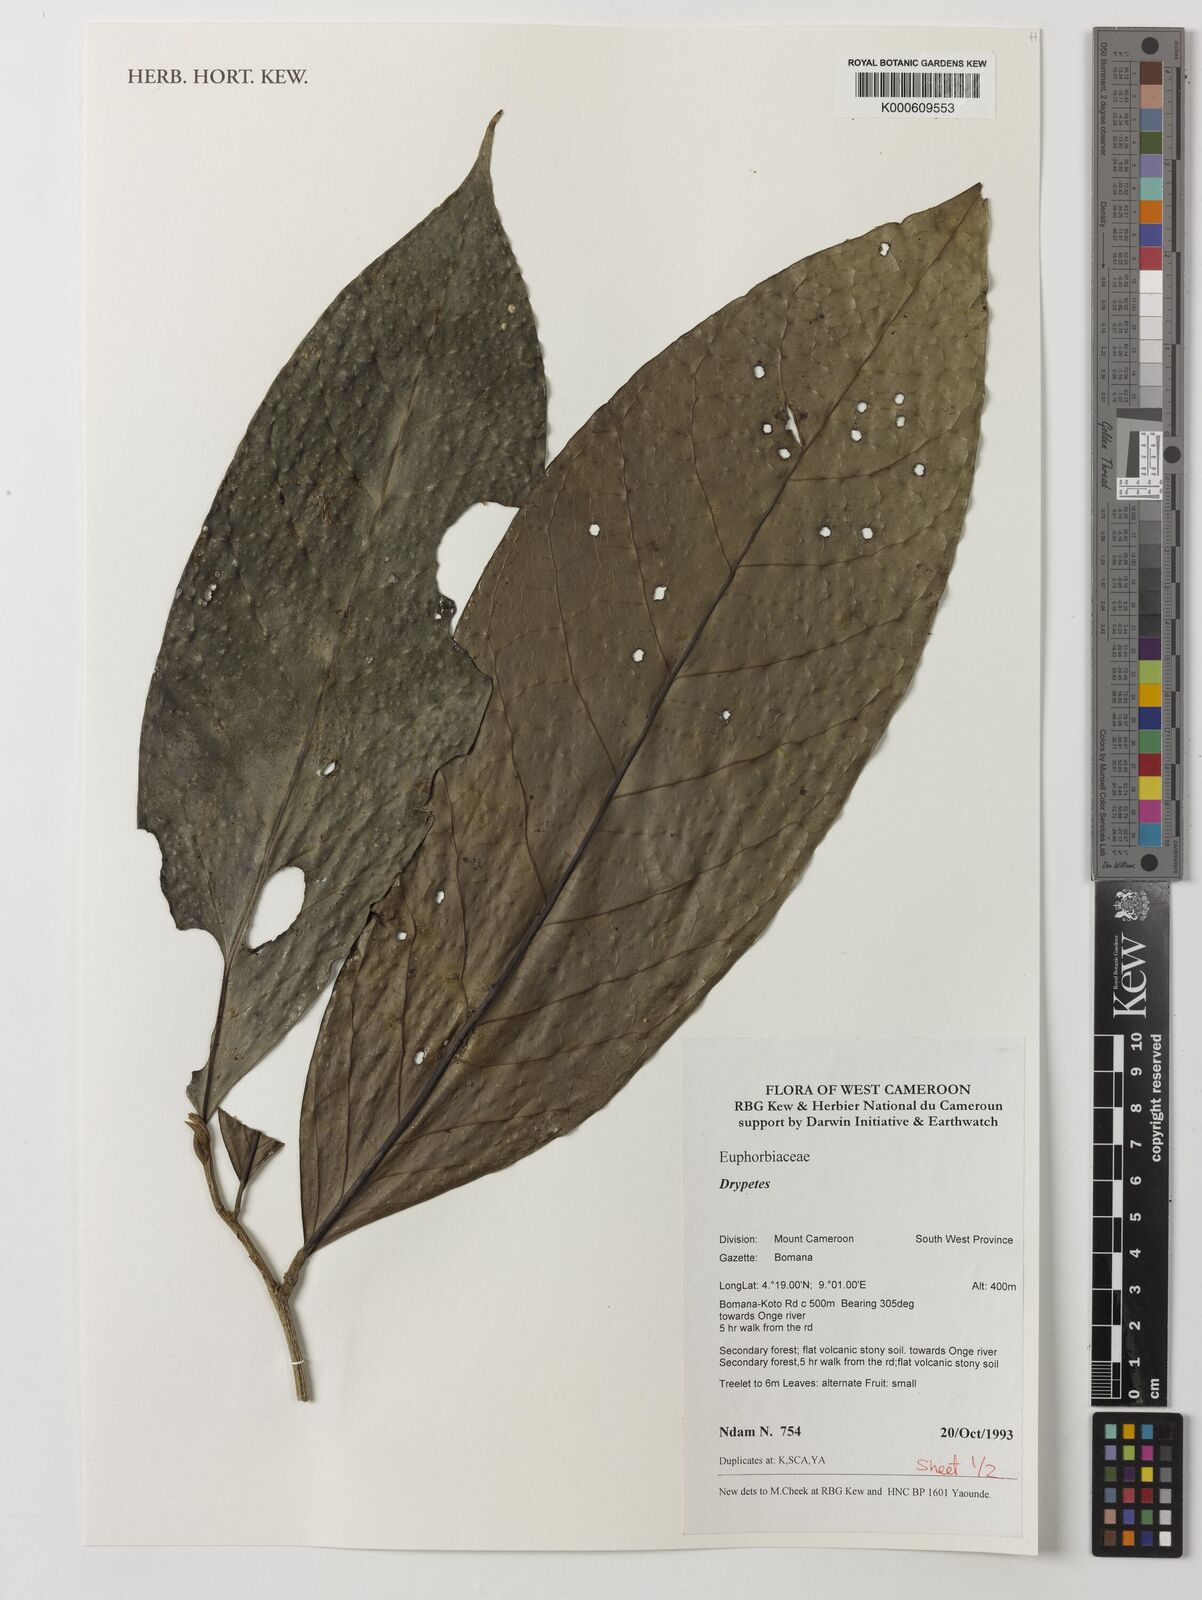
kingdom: Plantae
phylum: Tracheophyta
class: Magnoliopsida
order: Malpighiales
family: Putranjivaceae
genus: Drypetes
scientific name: Drypetes
